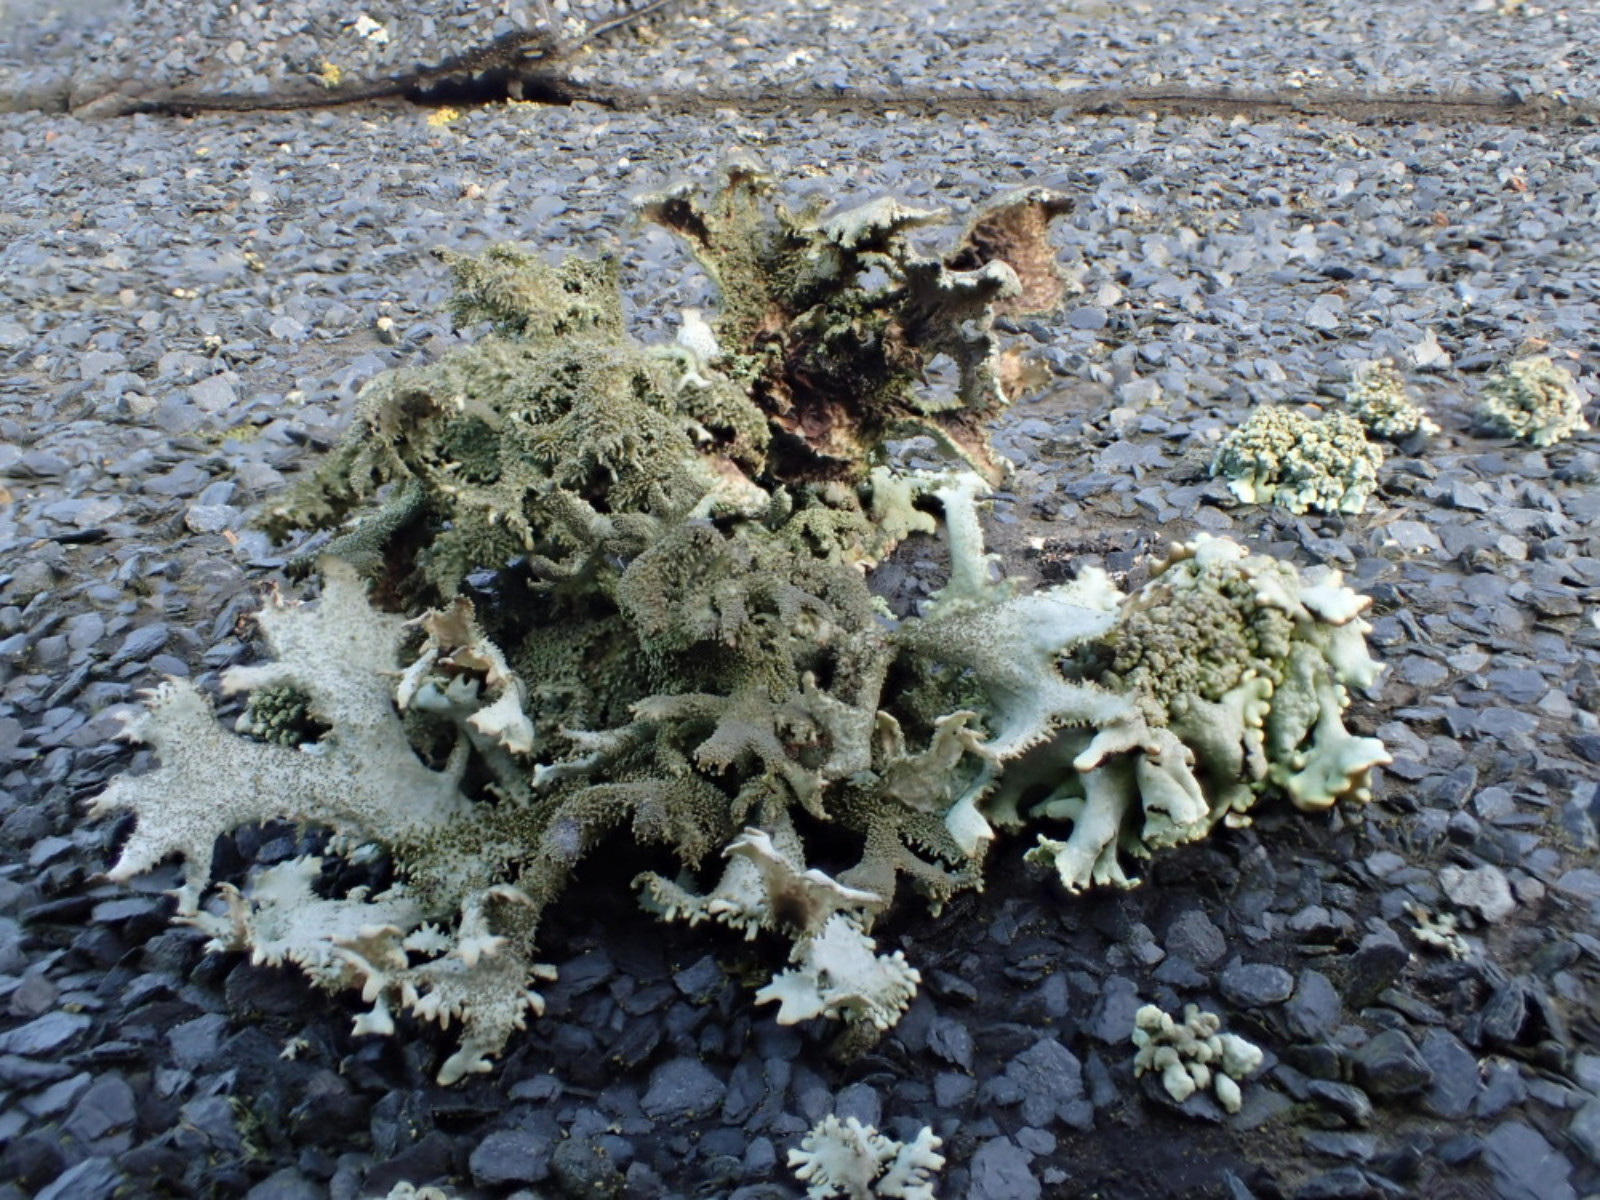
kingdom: Fungi
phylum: Ascomycota
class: Lecanoromycetes
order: Lecanorales
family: Parmeliaceae
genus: Pseudevernia
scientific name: Pseudevernia furfuracea
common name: grå fyrrelav
